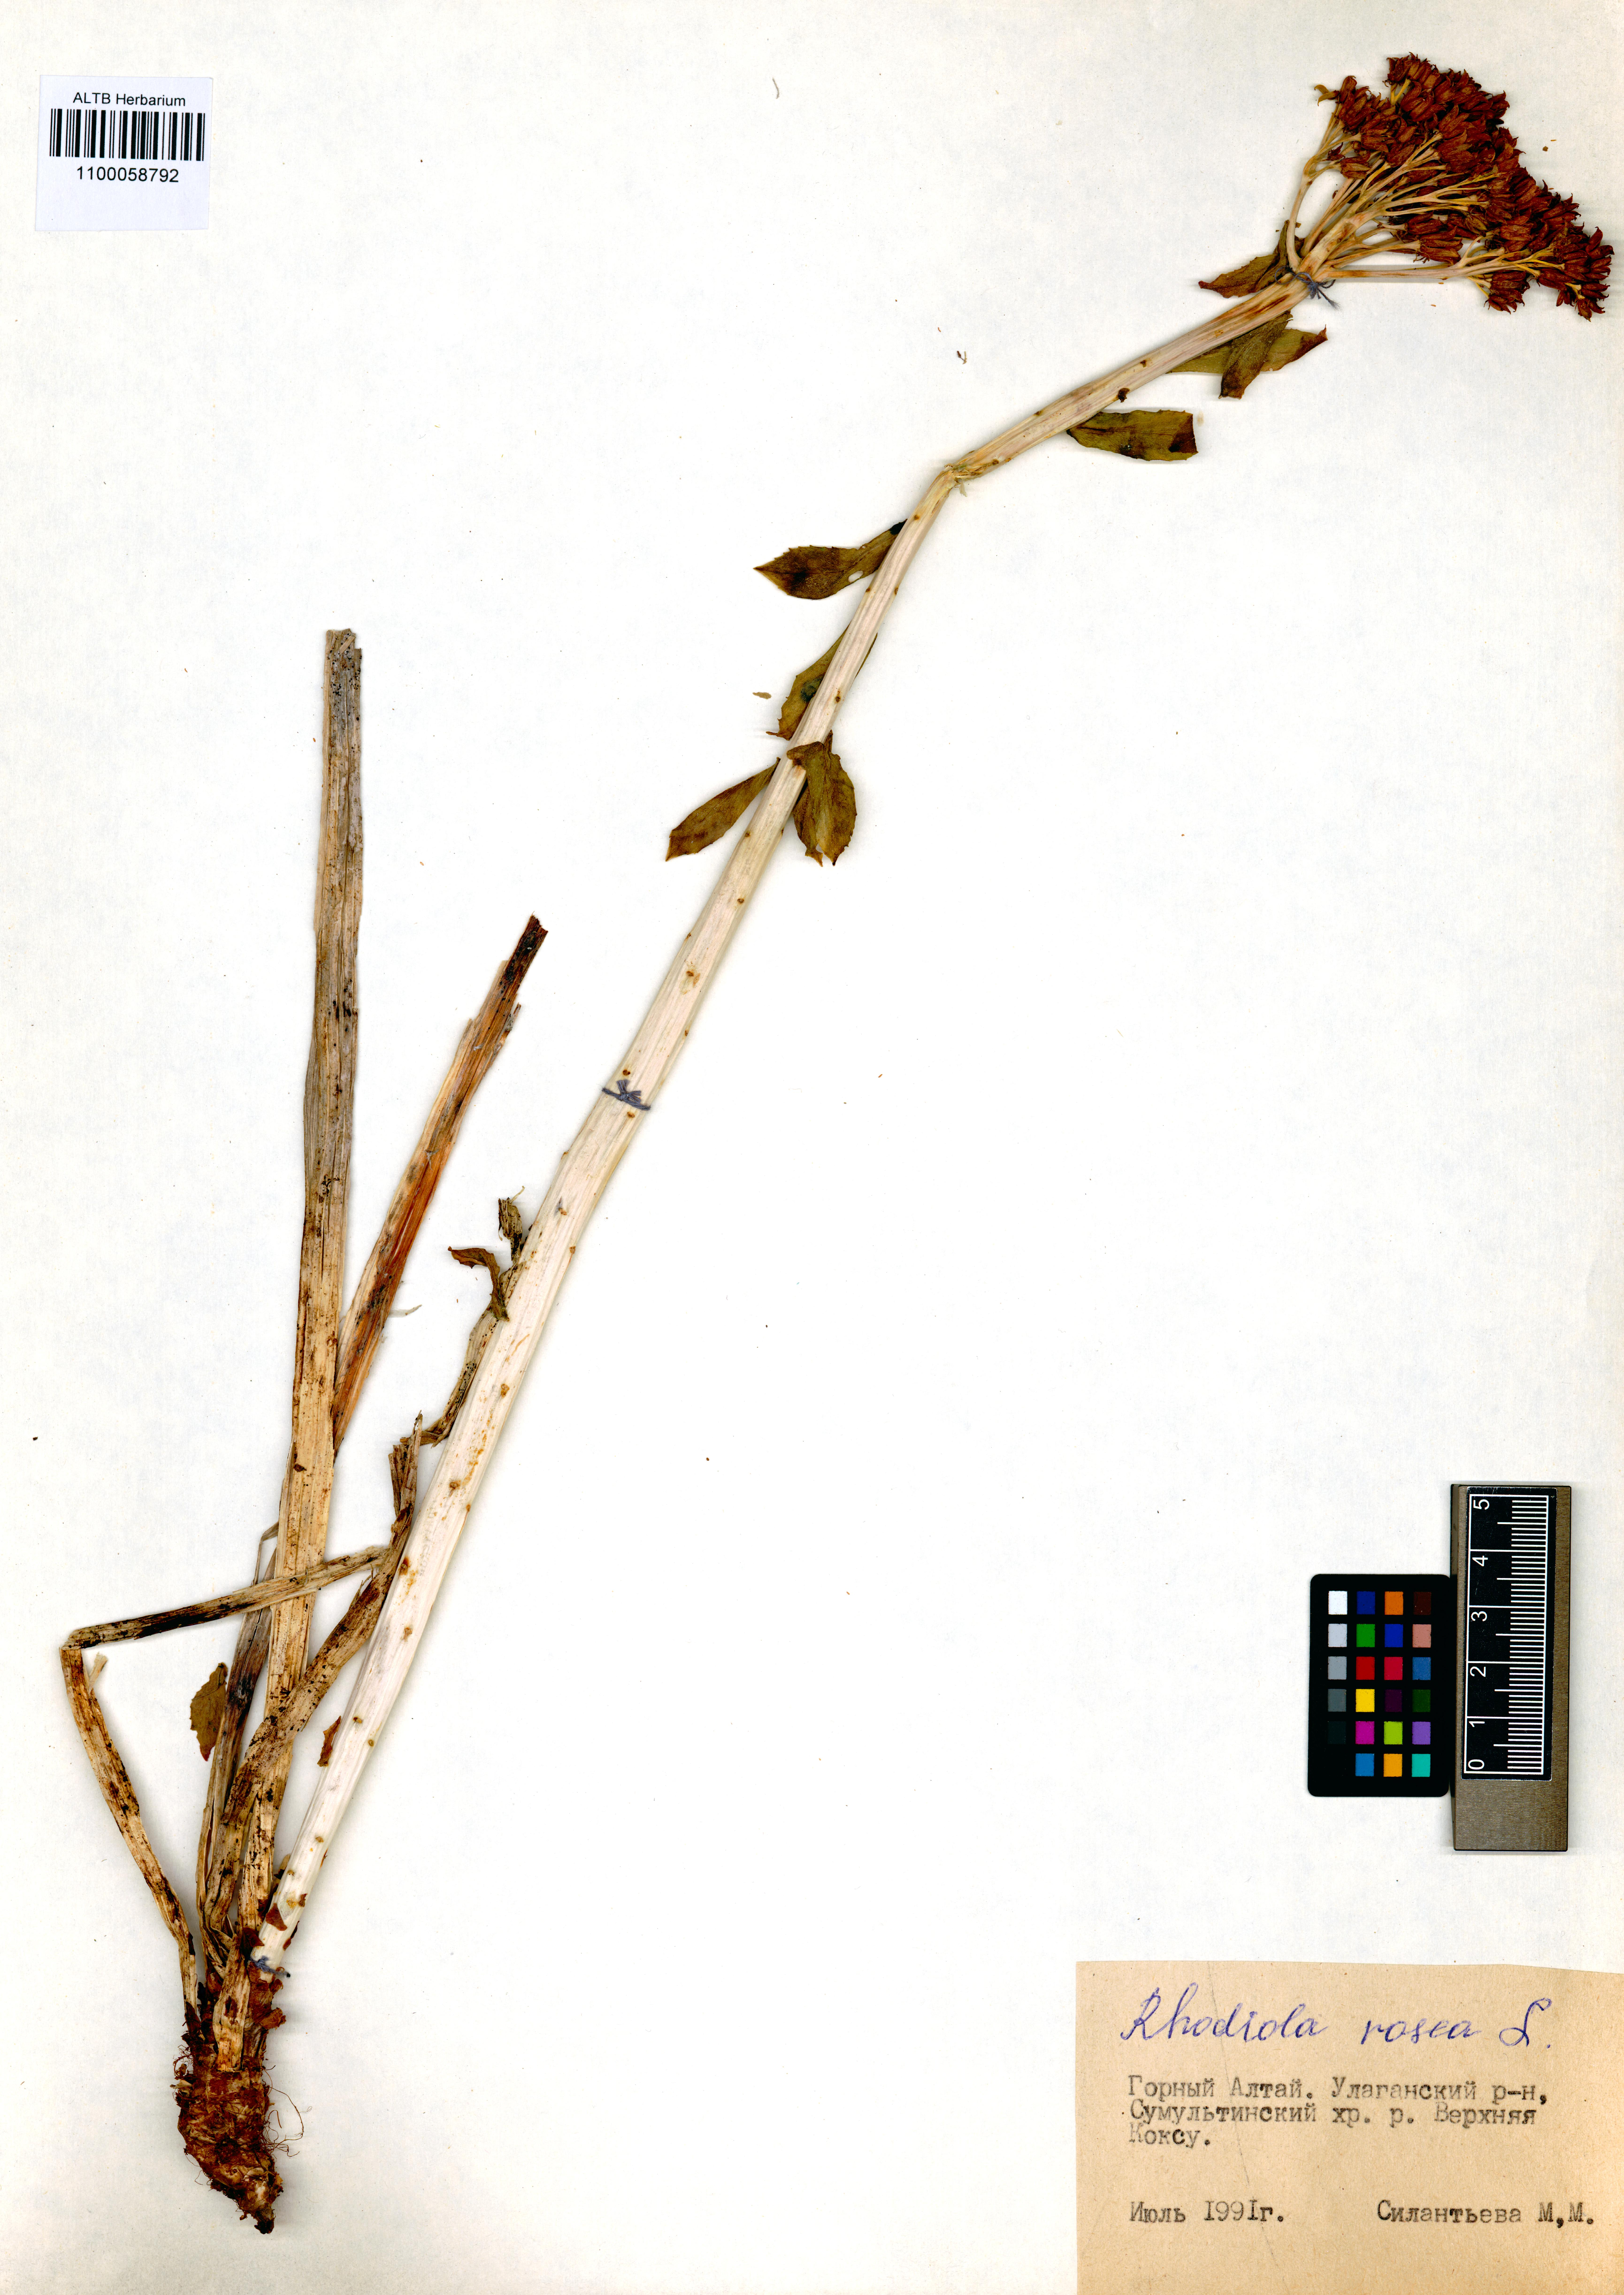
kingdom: Plantae
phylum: Tracheophyta
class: Magnoliopsida
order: Saxifragales
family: Crassulaceae
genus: Rhodiola
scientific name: Rhodiola rosea
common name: Roseroot
